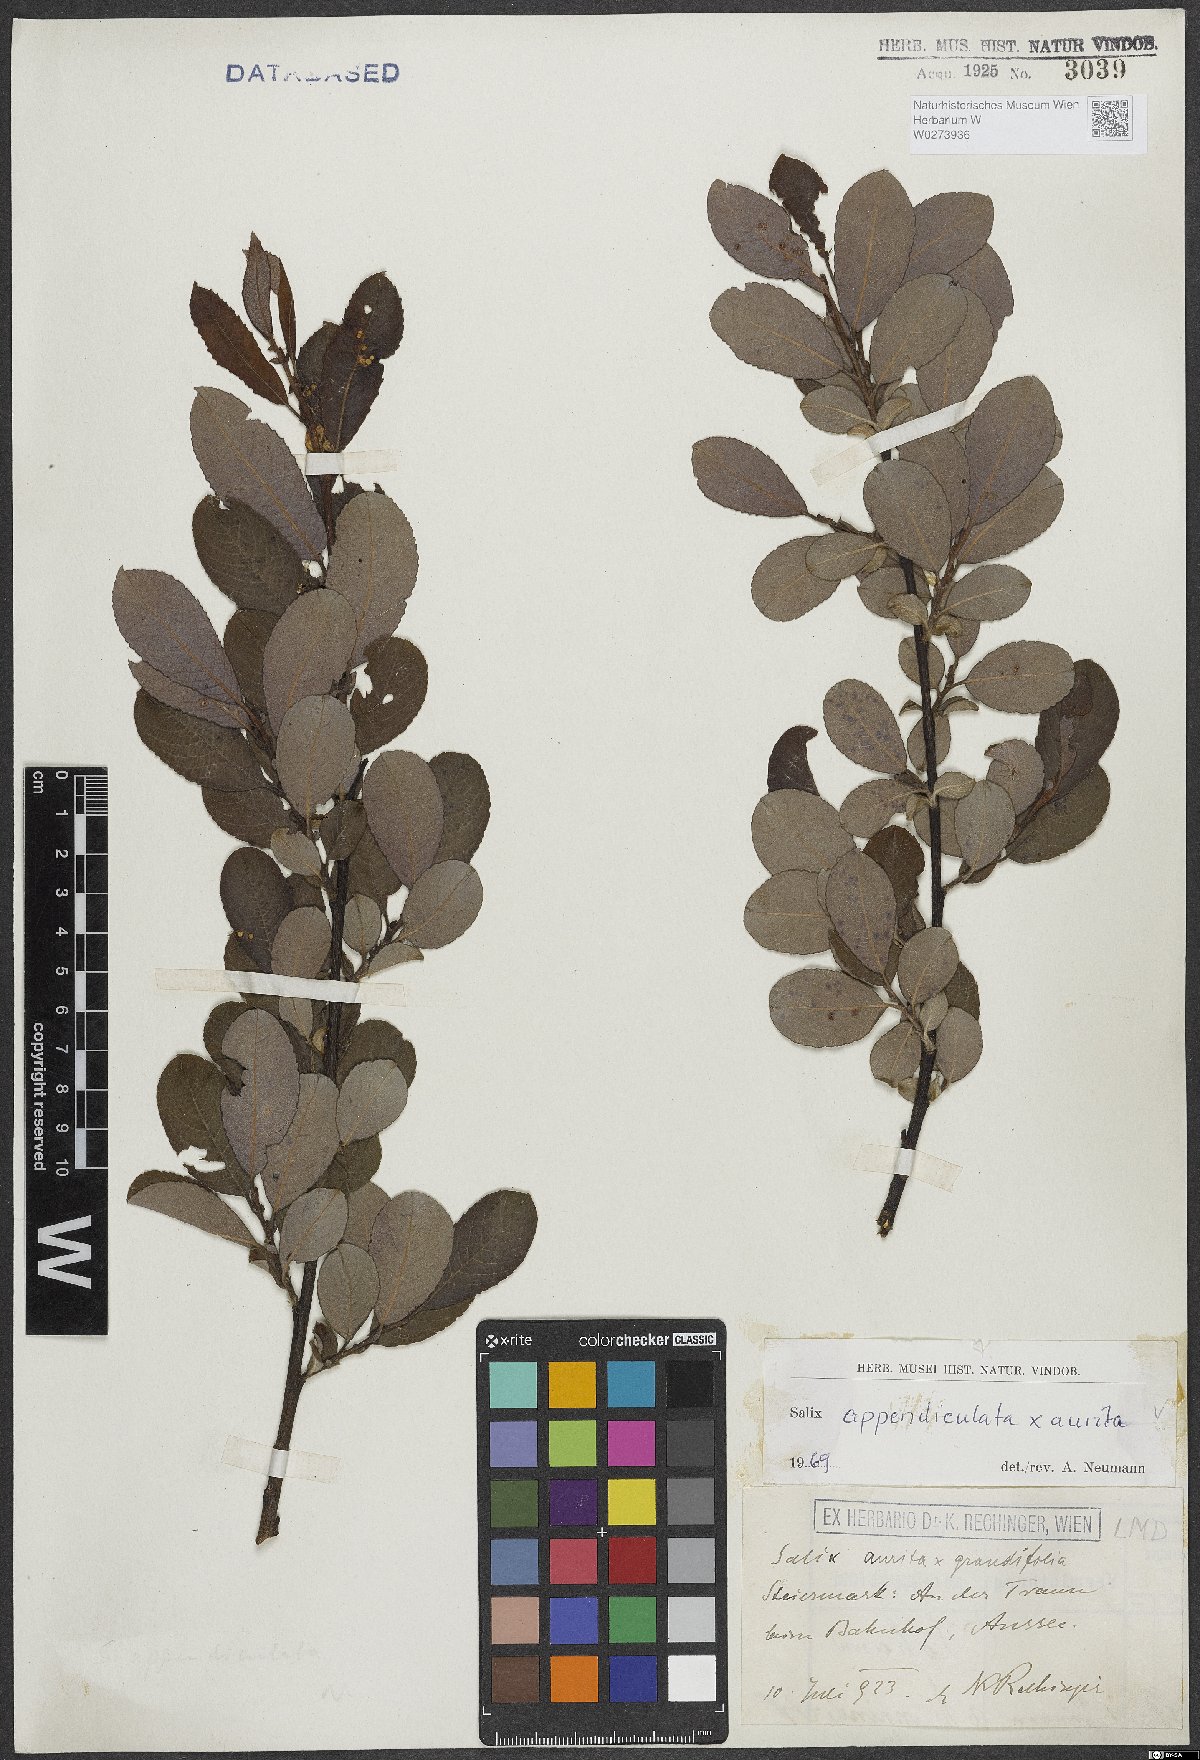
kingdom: Plantae
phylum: Tracheophyta
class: Magnoliopsida
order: Malpighiales
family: Salicaceae
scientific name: Salicaceae
